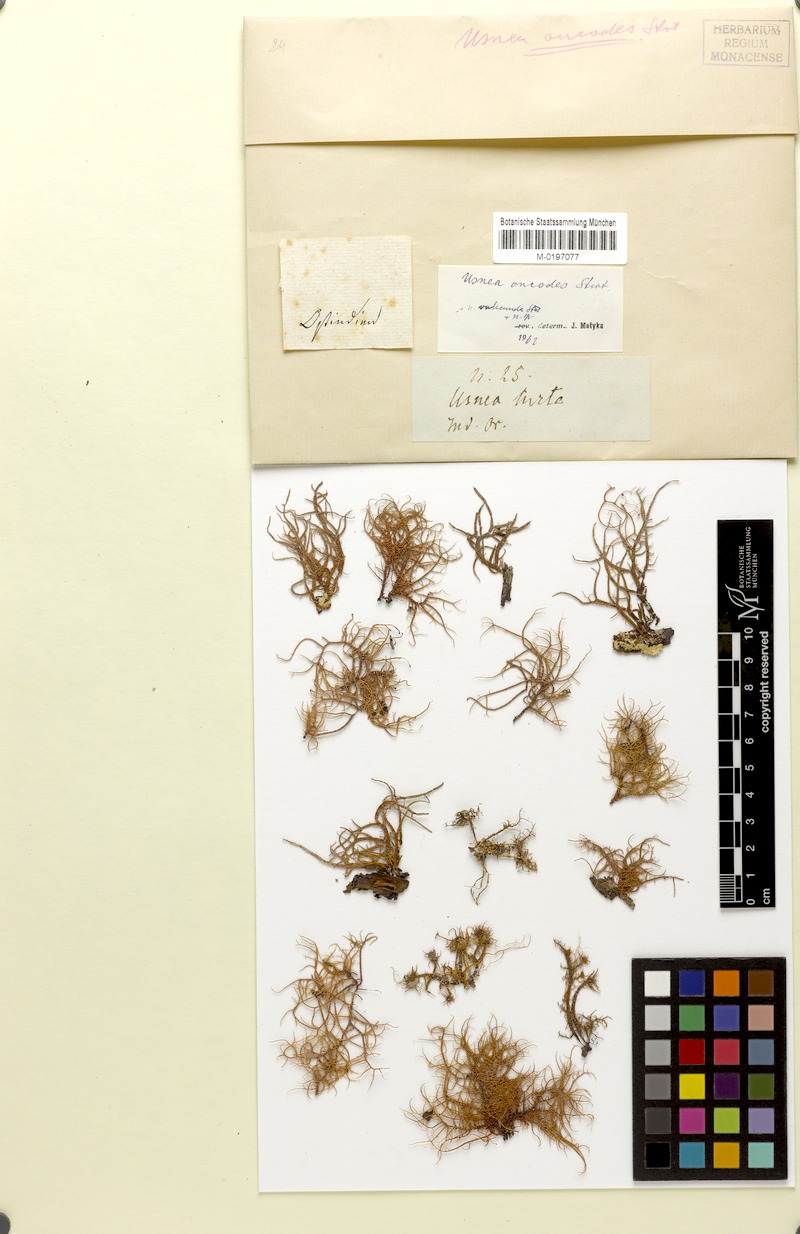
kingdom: Fungi
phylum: Ascomycota
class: Lecanoromycetes
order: Lecanorales
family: Parmeliaceae
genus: Usnea
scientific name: Usnea oncodes
